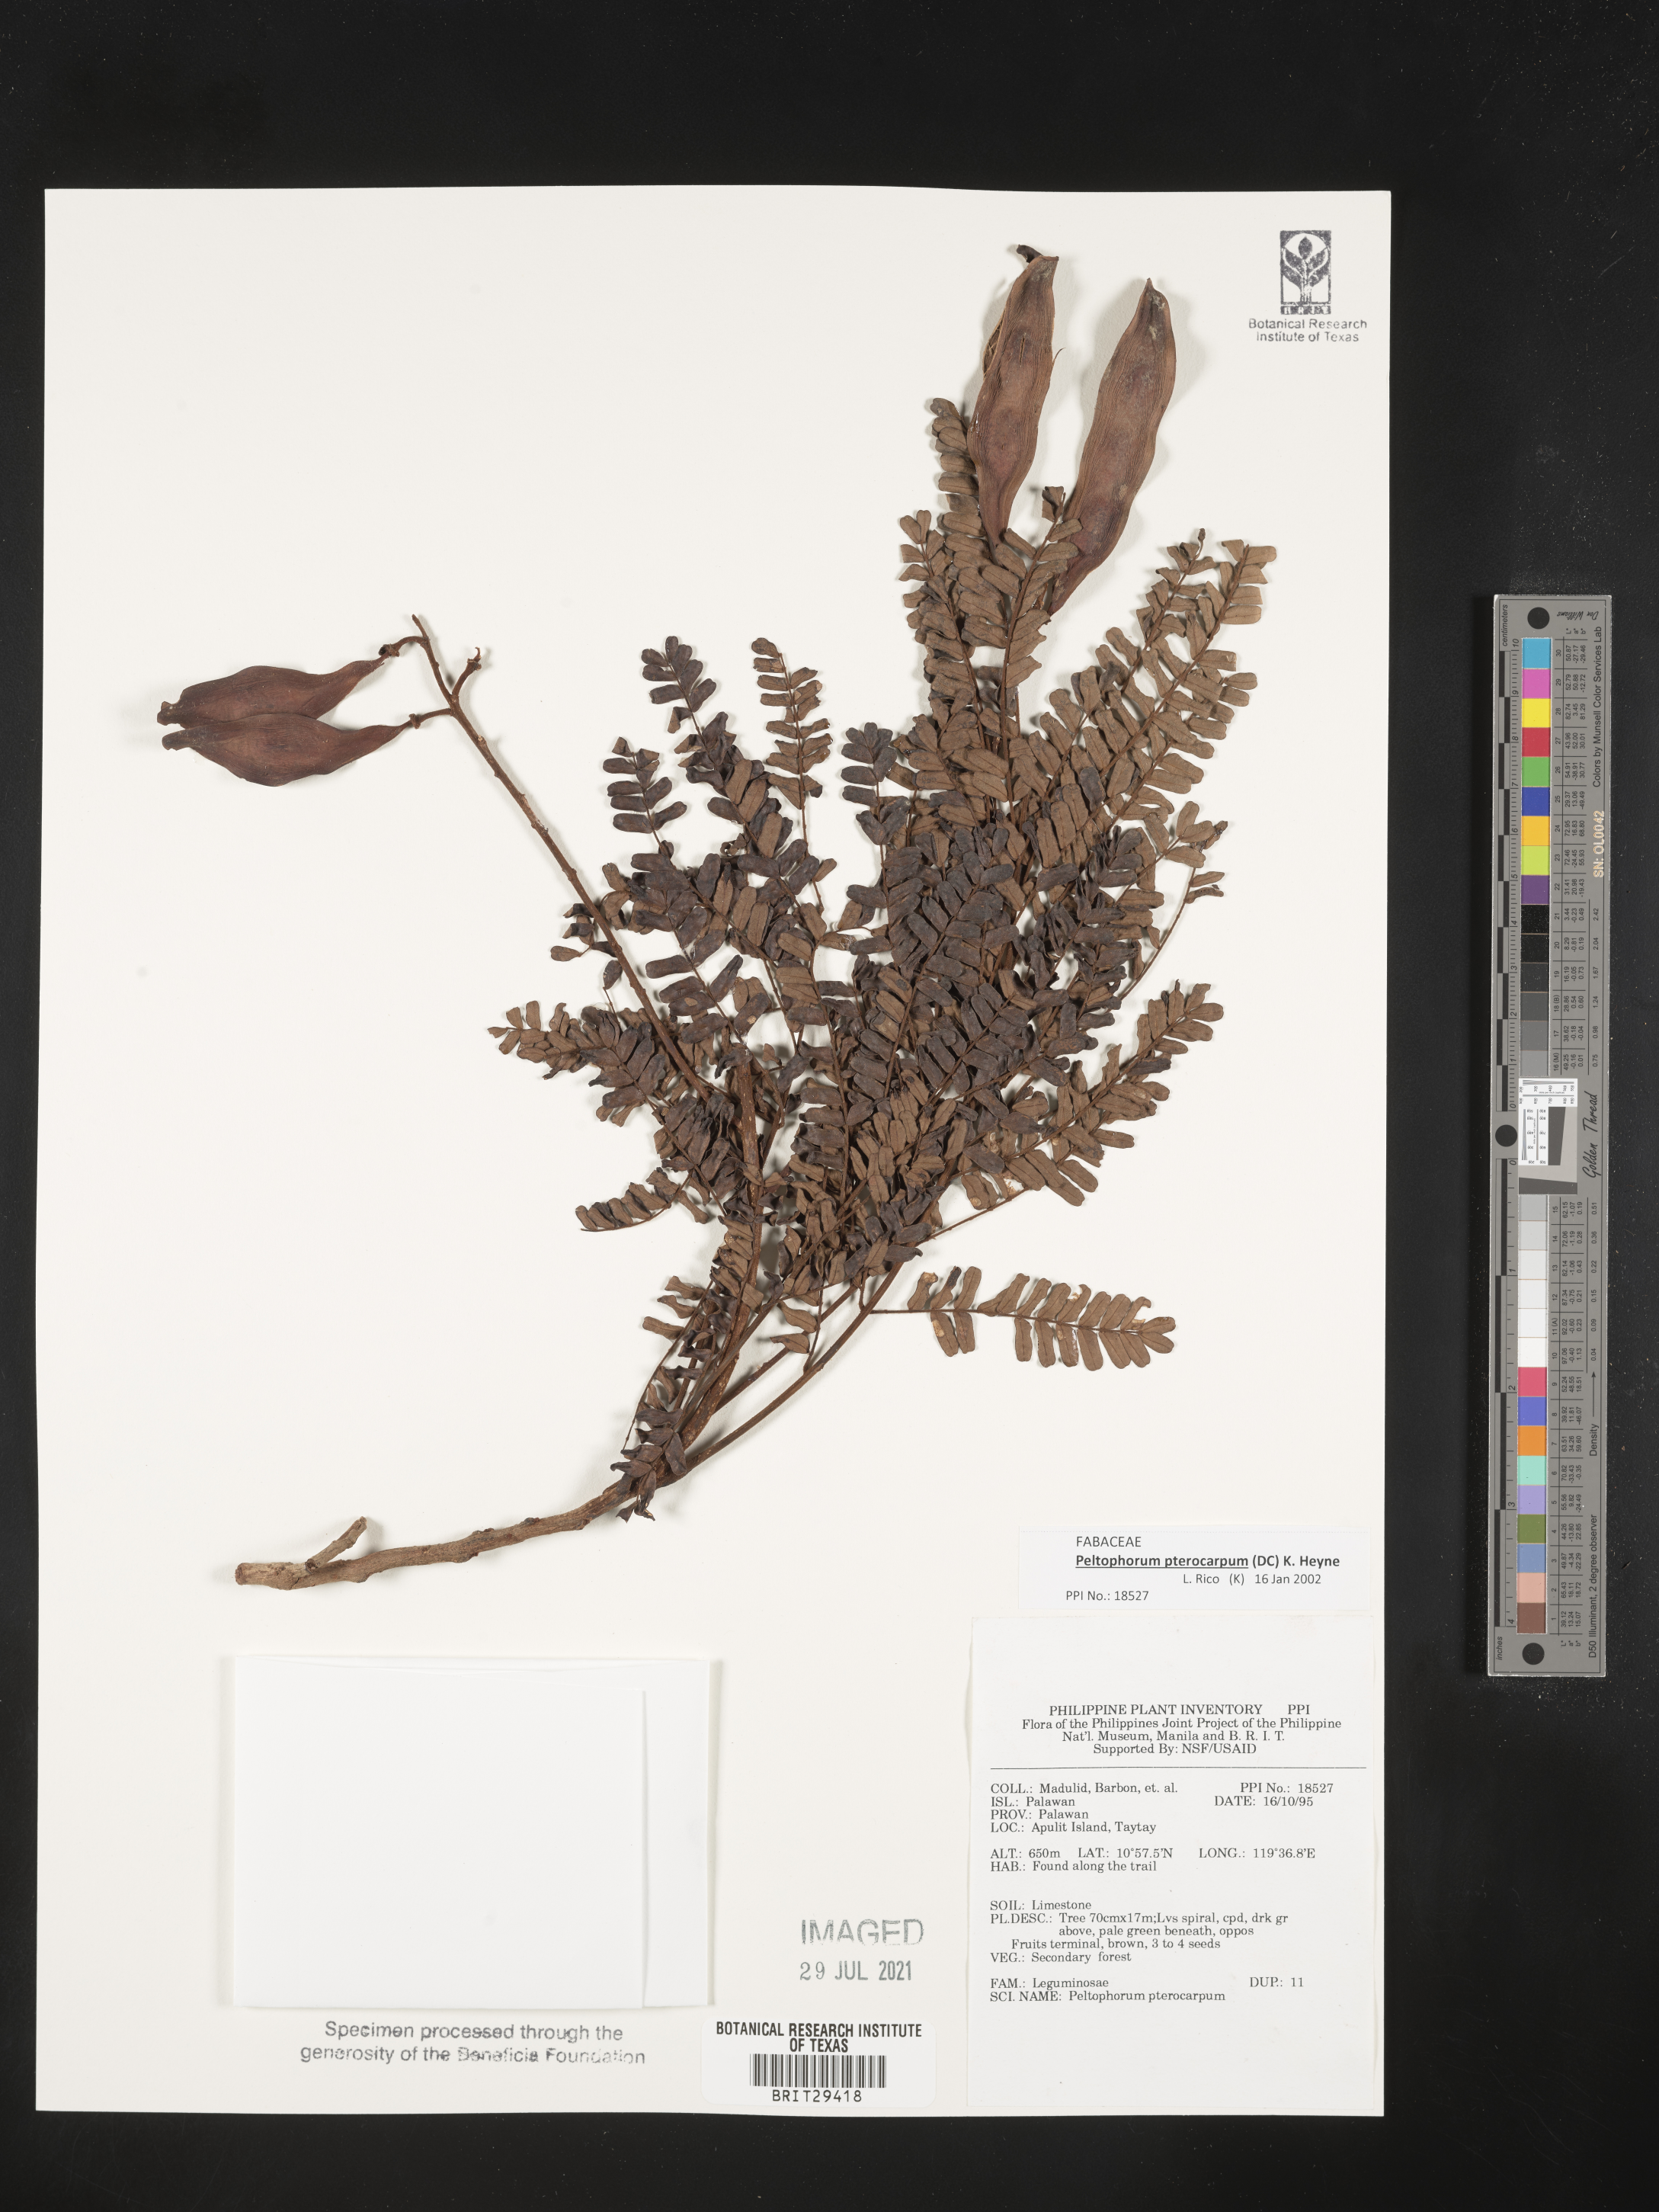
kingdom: Plantae
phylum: Tracheophyta
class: Magnoliopsida
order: Fabales
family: Fabaceae
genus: Peltophorum
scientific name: Peltophorum pterocarpum
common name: Yellow flame
